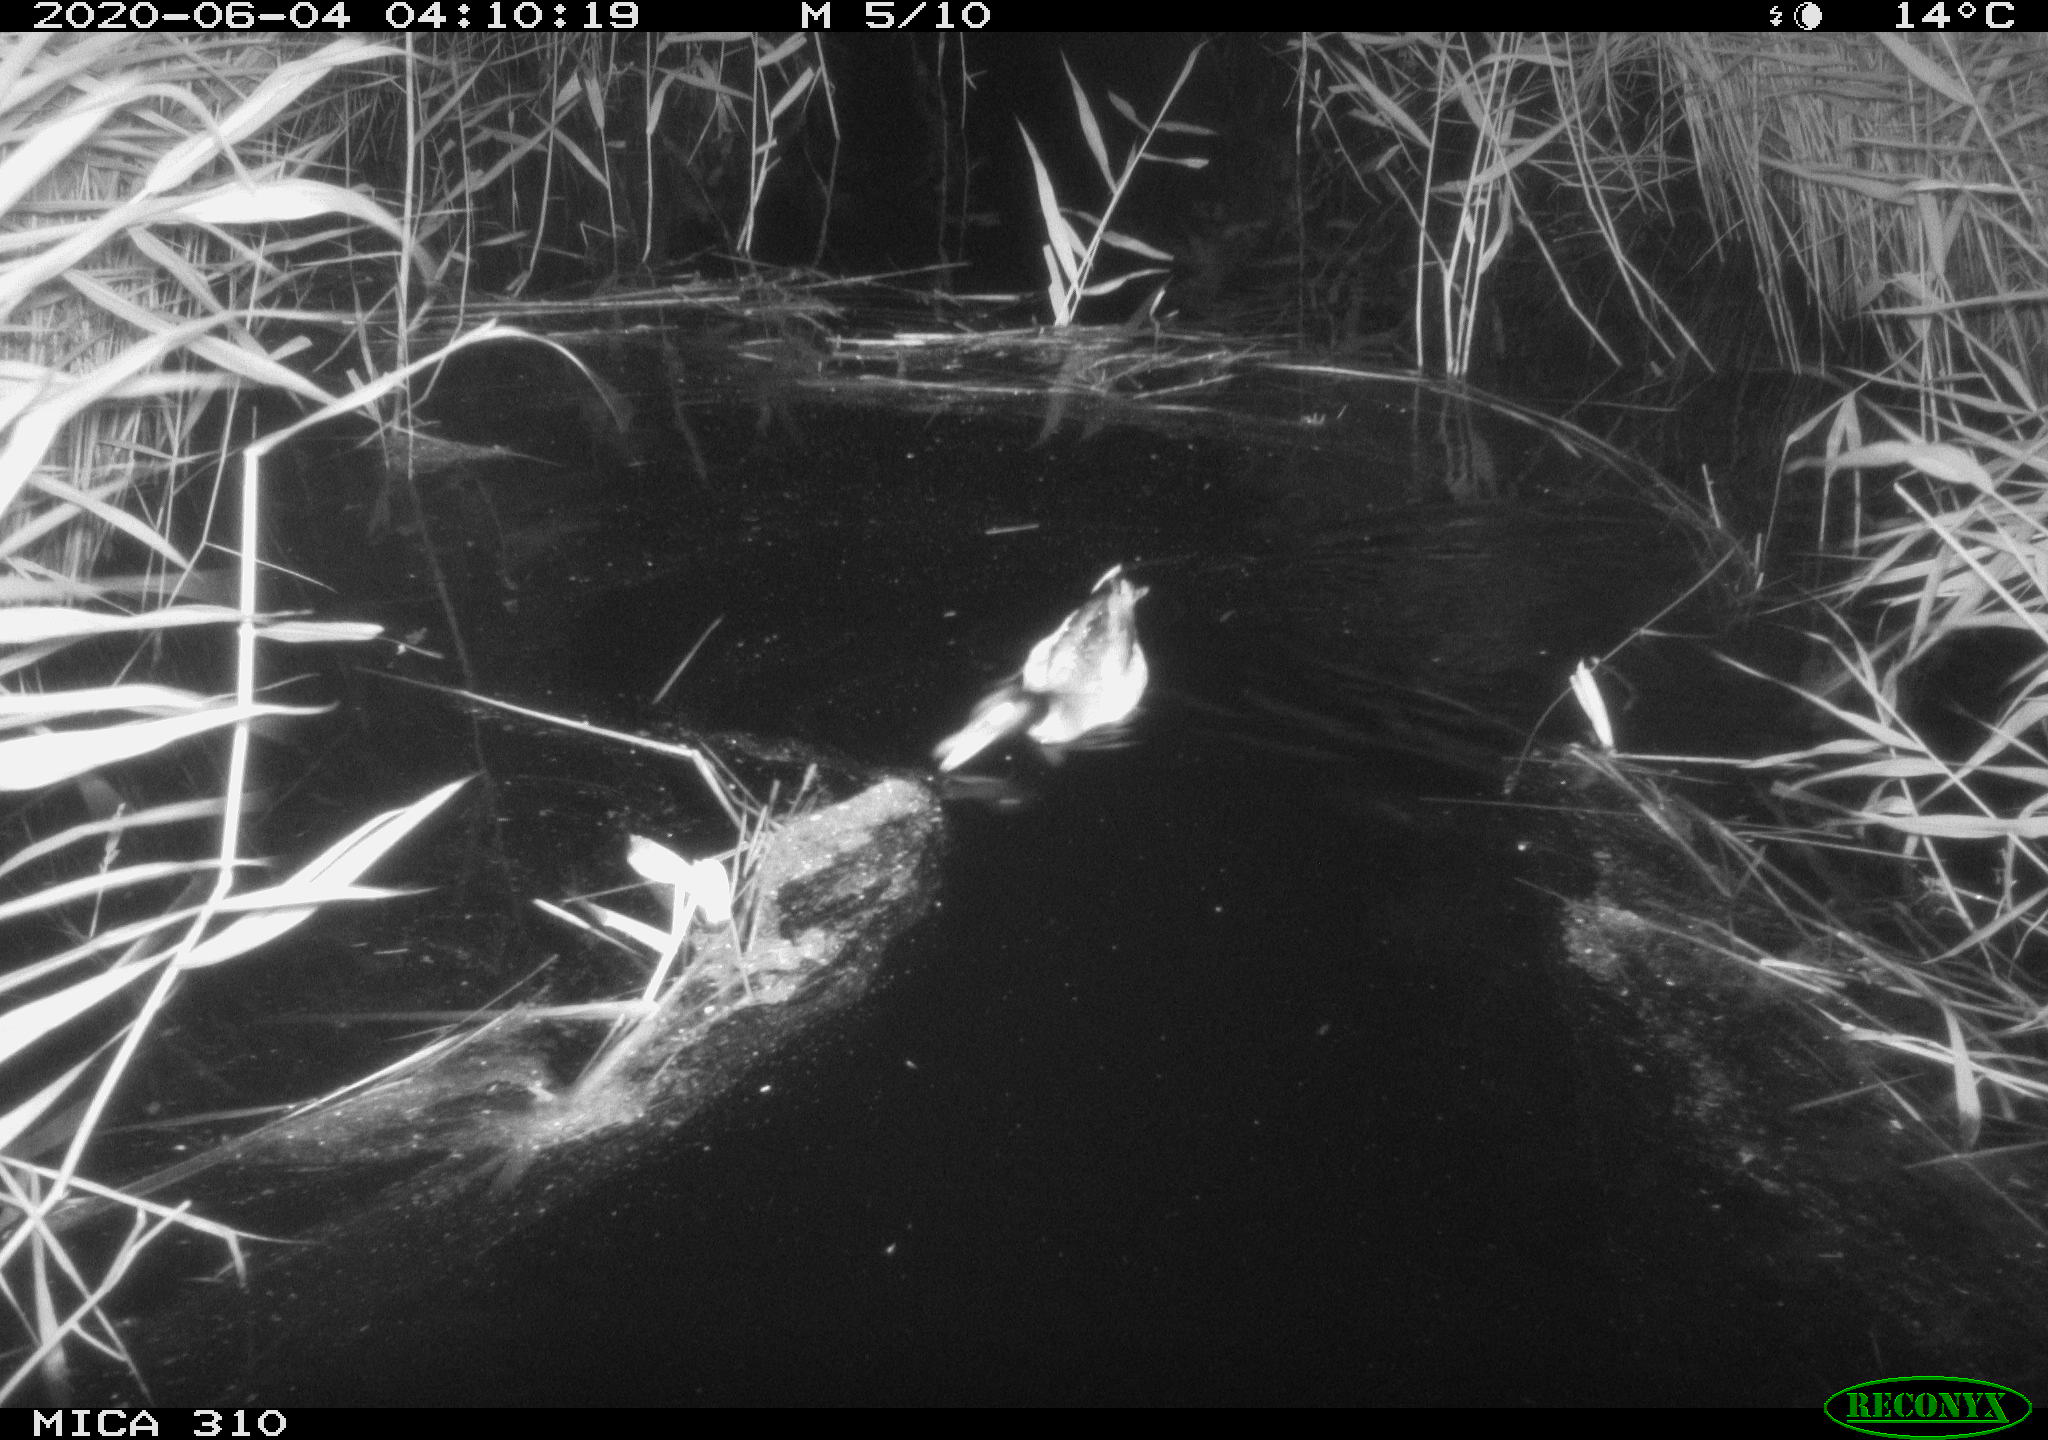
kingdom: Animalia
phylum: Chordata
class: Aves
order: Anseriformes
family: Anatidae
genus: Anas
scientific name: Anas platyrhynchos
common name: Mallard
